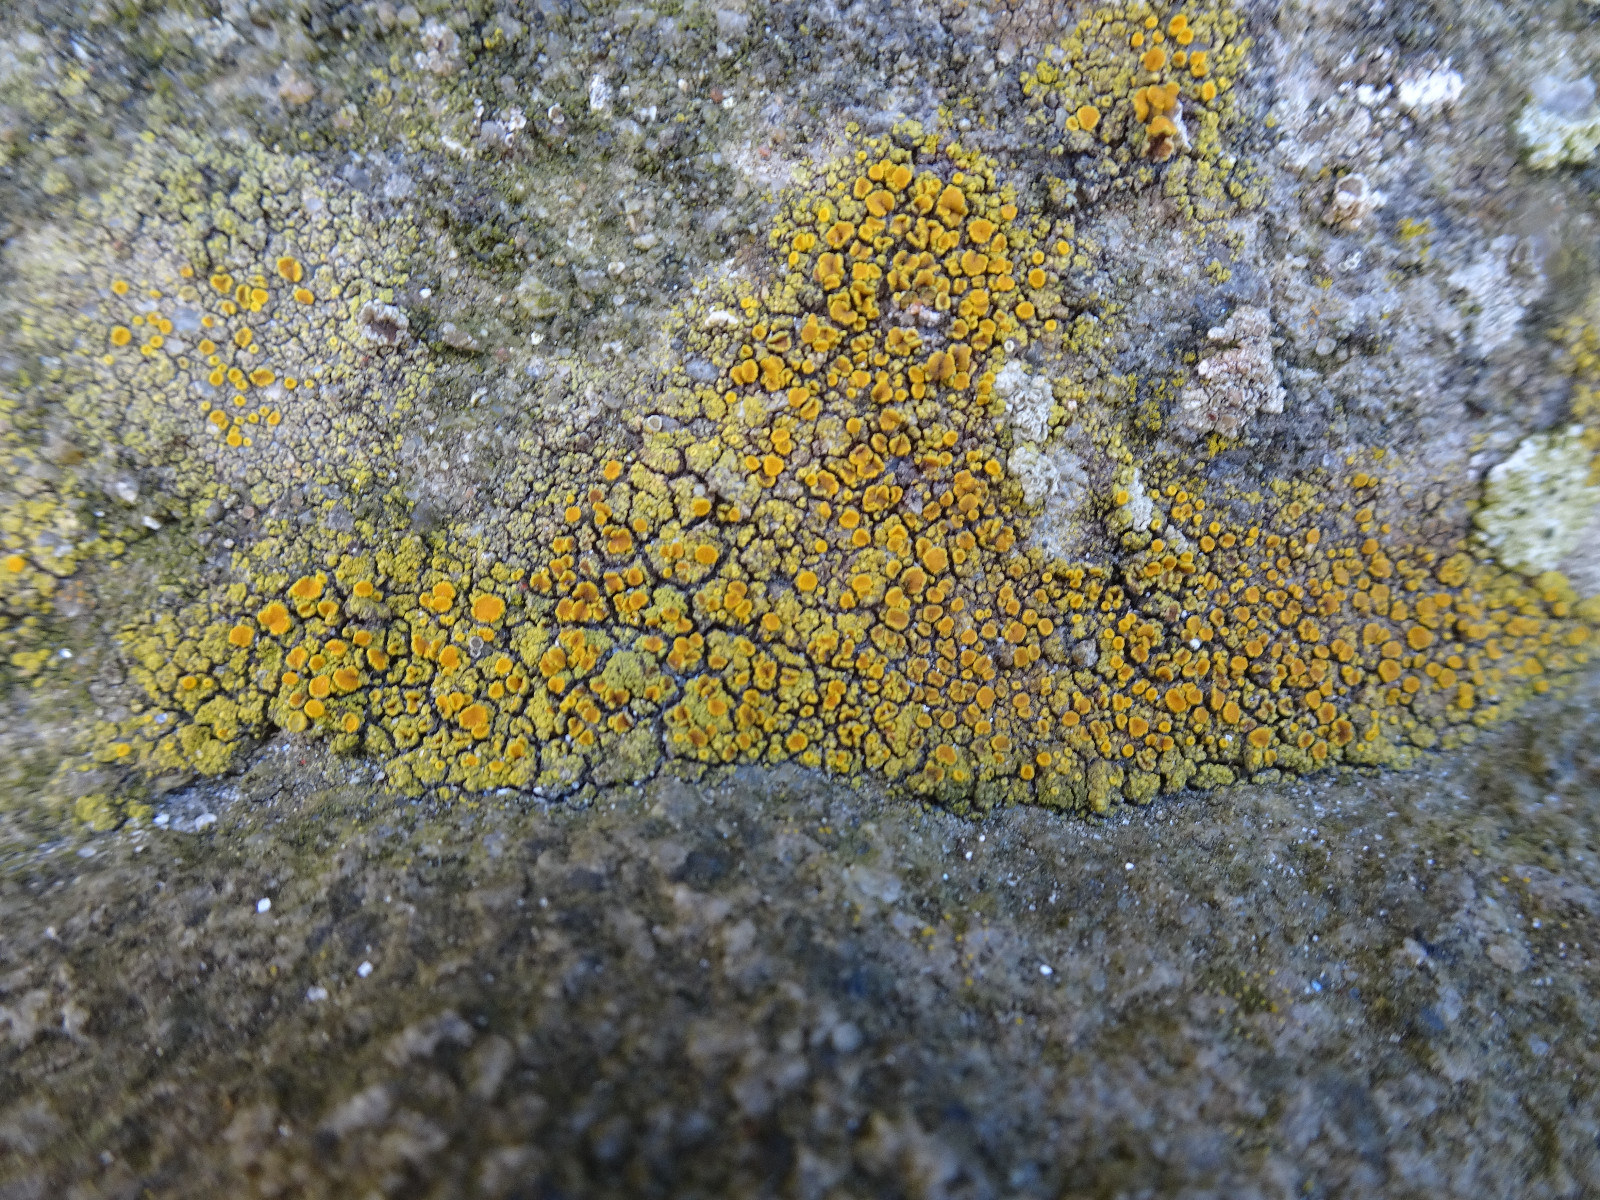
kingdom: Fungi
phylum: Ascomycota
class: Lecanoromycetes
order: Lecanorales
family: Parmeliaceae
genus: Lichen
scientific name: Lichen
